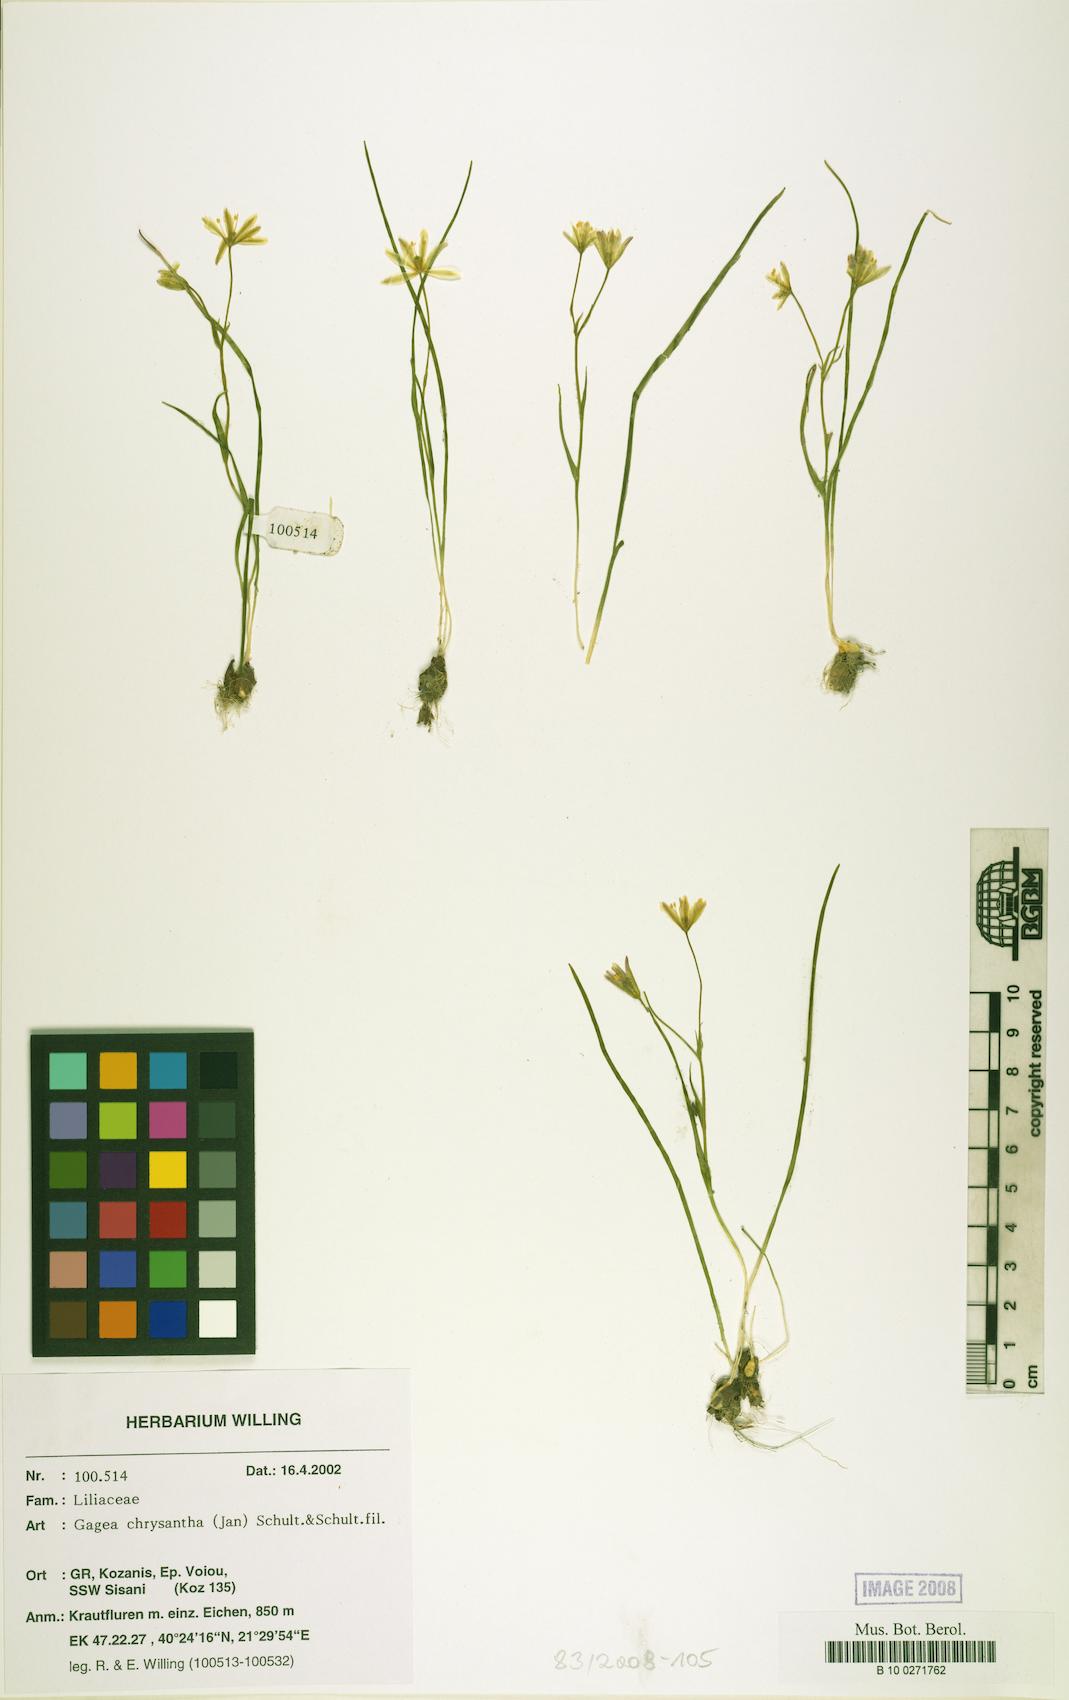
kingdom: Plantae
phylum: Tracheophyta
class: Liliopsida
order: Liliales
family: Liliaceae
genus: Gagea
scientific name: Gagea chrysantha
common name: Golden gagea
